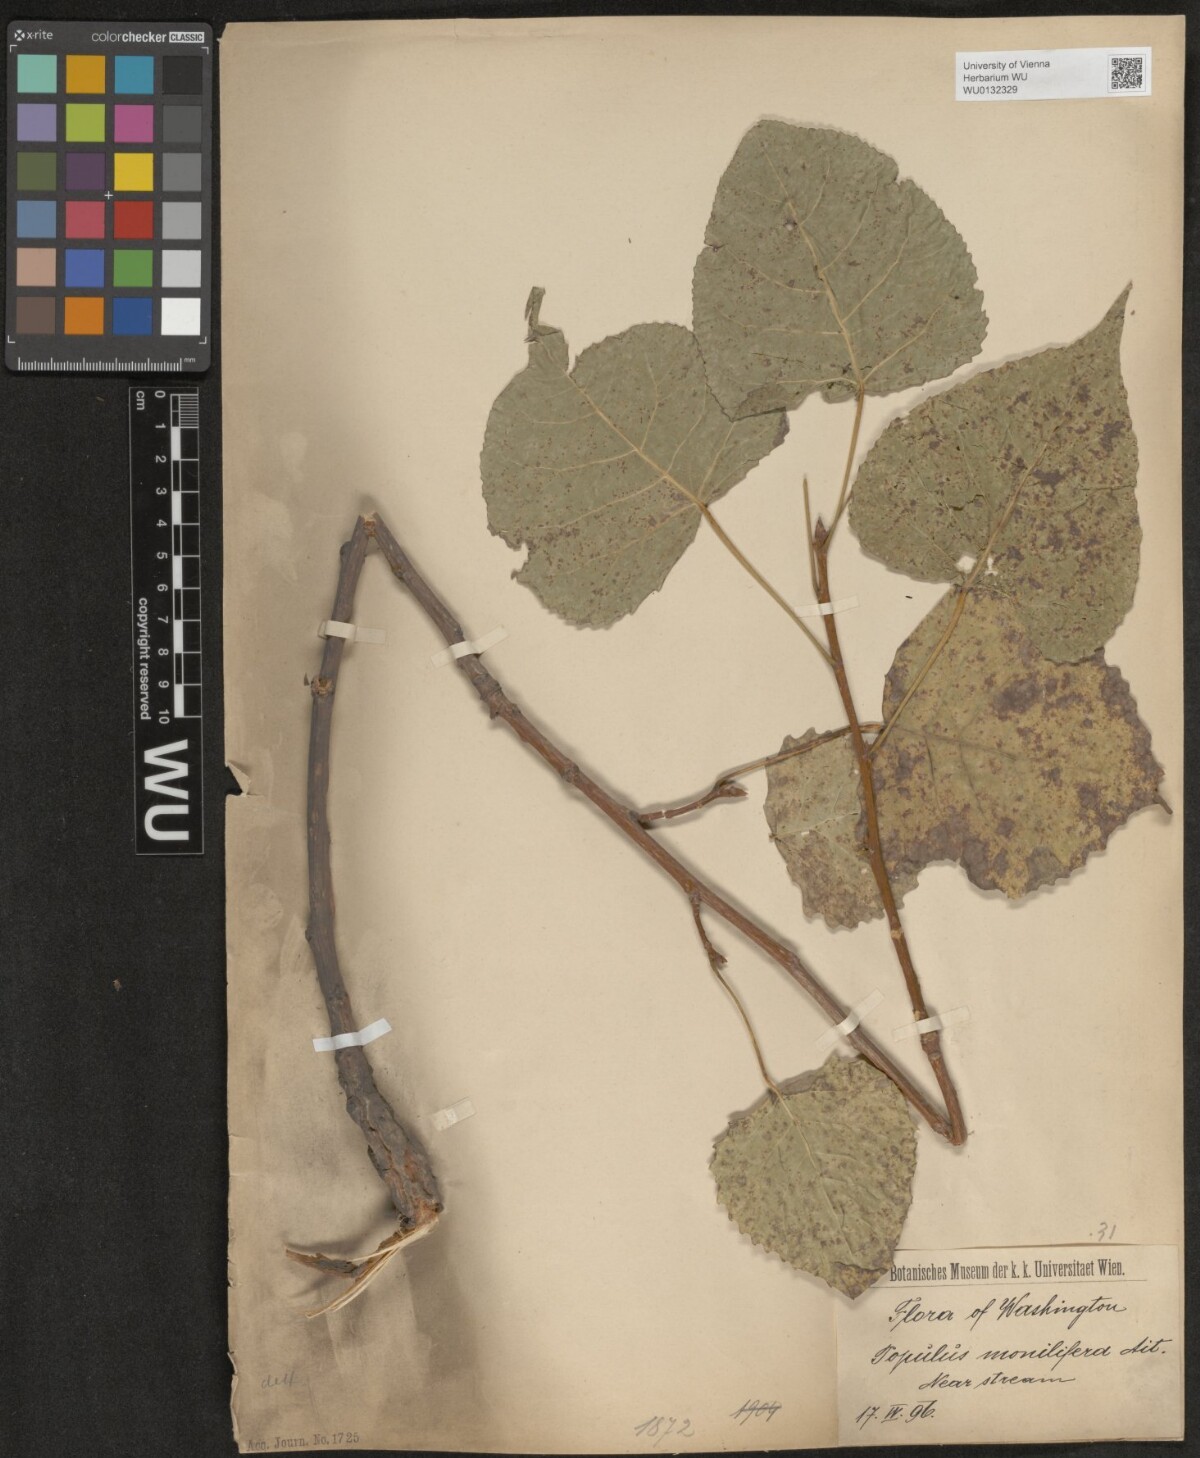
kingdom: Plantae
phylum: Tracheophyta
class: Magnoliopsida
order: Malpighiales
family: Salicaceae
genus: Populus
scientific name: Populus deltoides
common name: Eastern cottonwood
